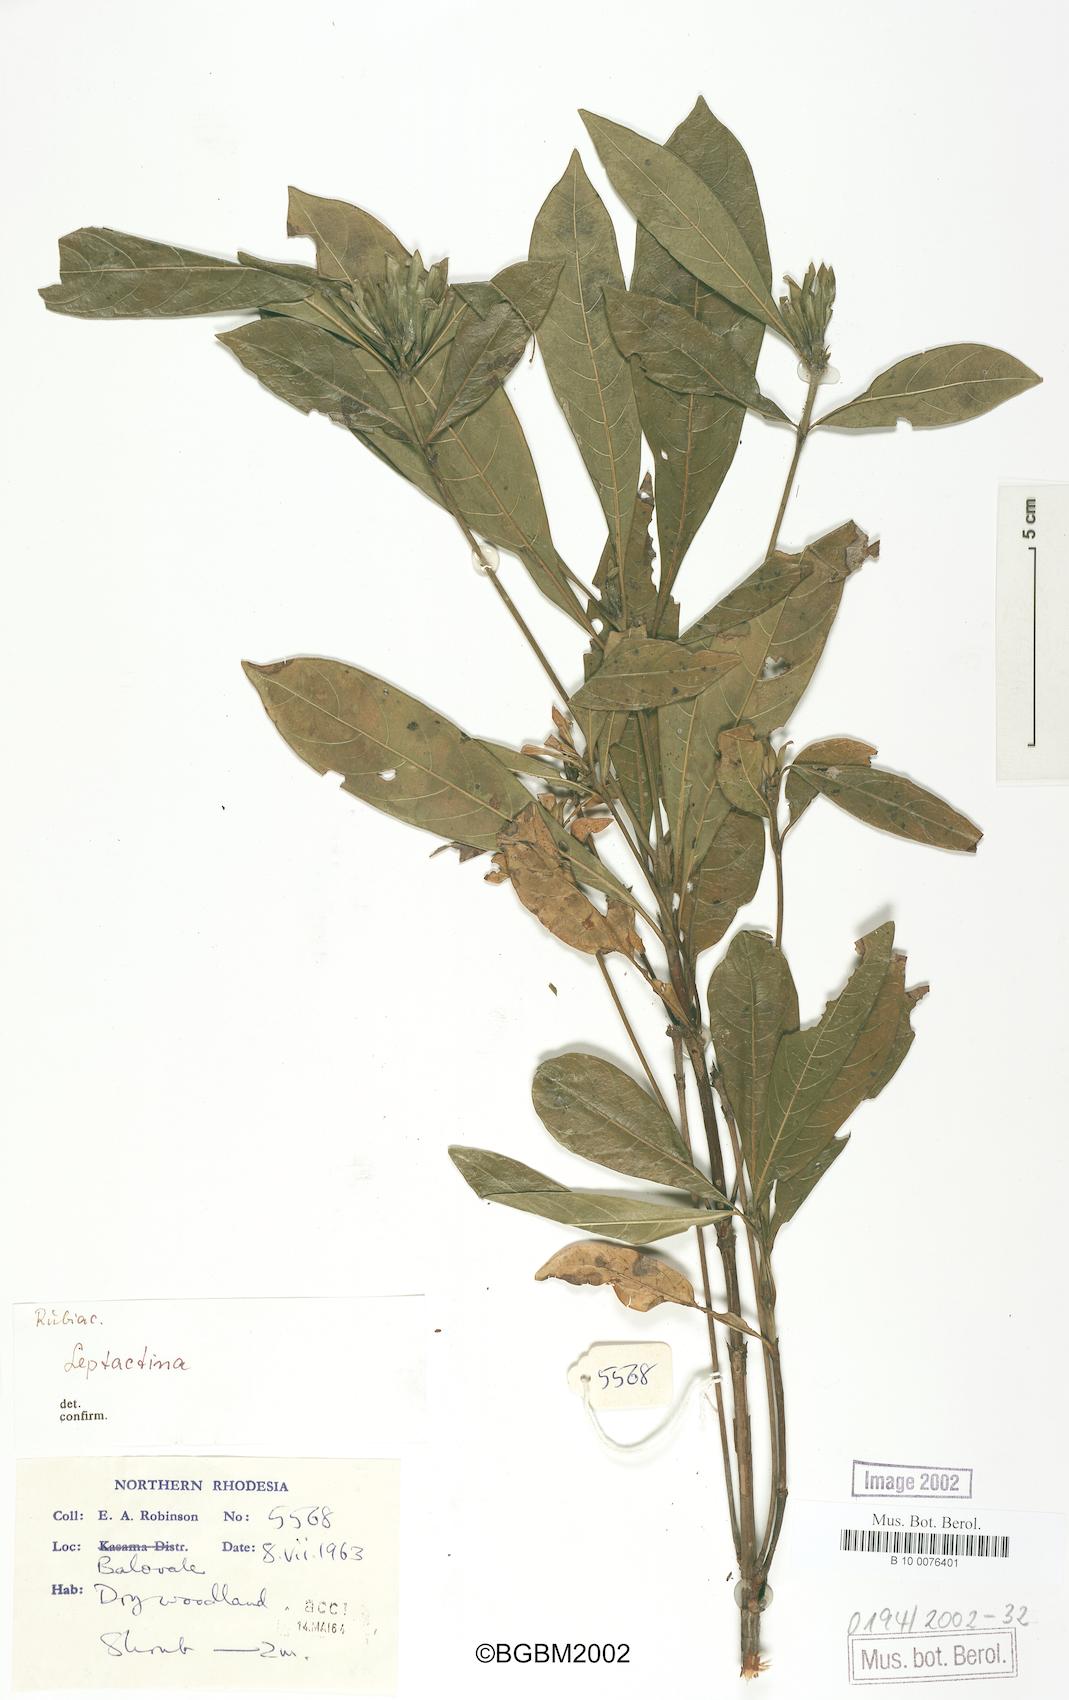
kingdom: Plantae
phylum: Tracheophyta
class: Magnoliopsida
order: Gentianales
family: Rubiaceae
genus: Leptactinia
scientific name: Leptactinia
